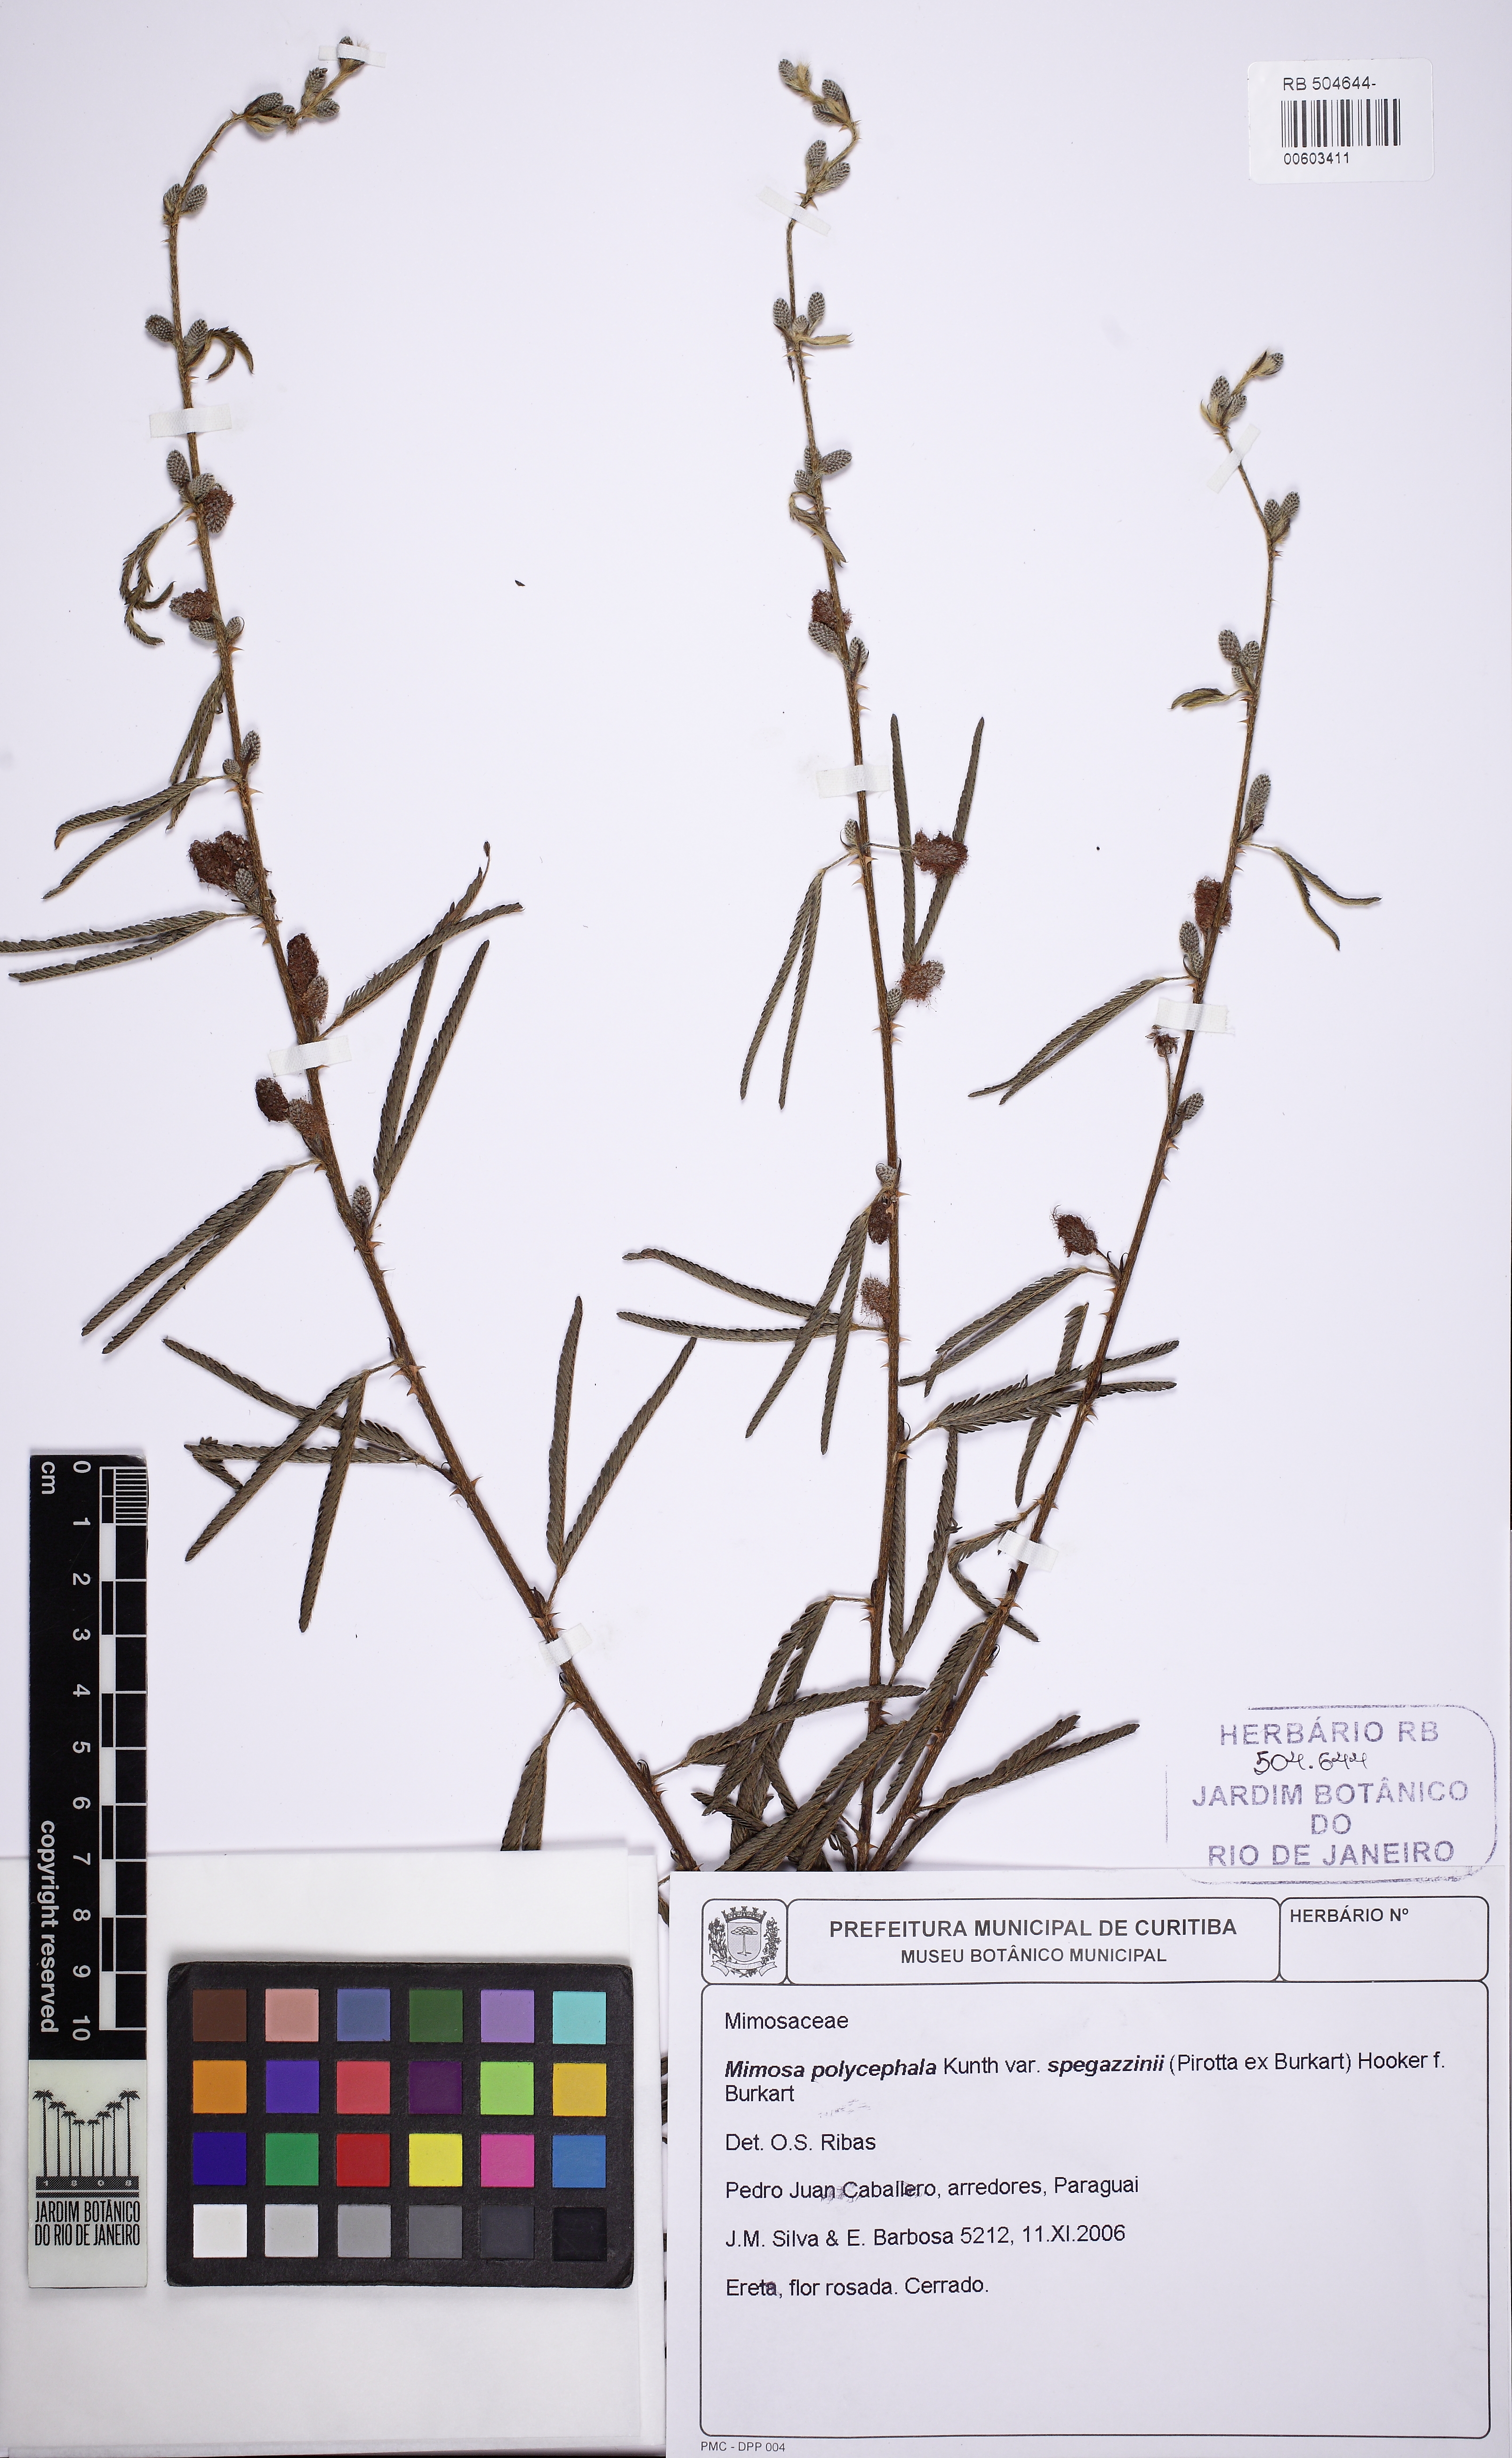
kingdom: Plantae
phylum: Tracheophyta
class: Magnoliopsida
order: Fabales
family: Fabaceae
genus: Mimosa
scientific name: Mimosa polycephala
